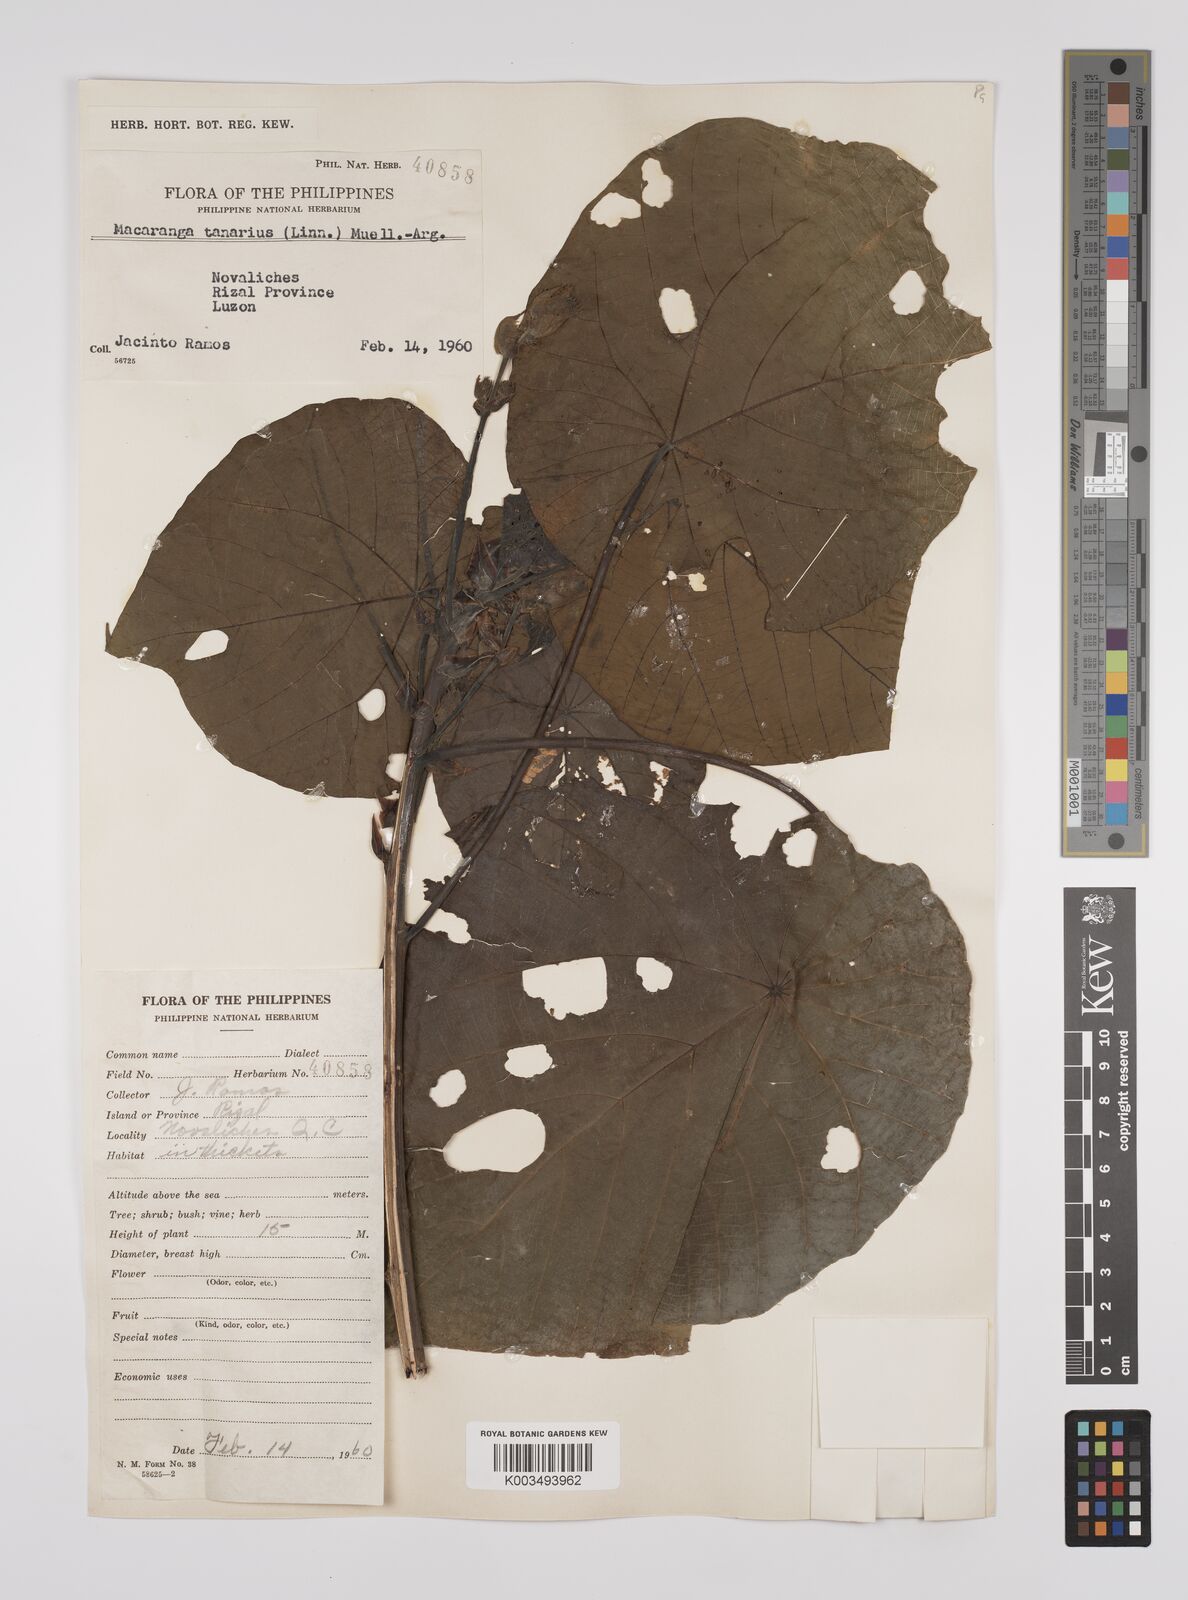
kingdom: Plantae
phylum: Tracheophyta
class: Magnoliopsida
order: Malpighiales
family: Euphorbiaceae
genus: Macaranga
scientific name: Macaranga tanarius
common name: Parasol leaf tree
